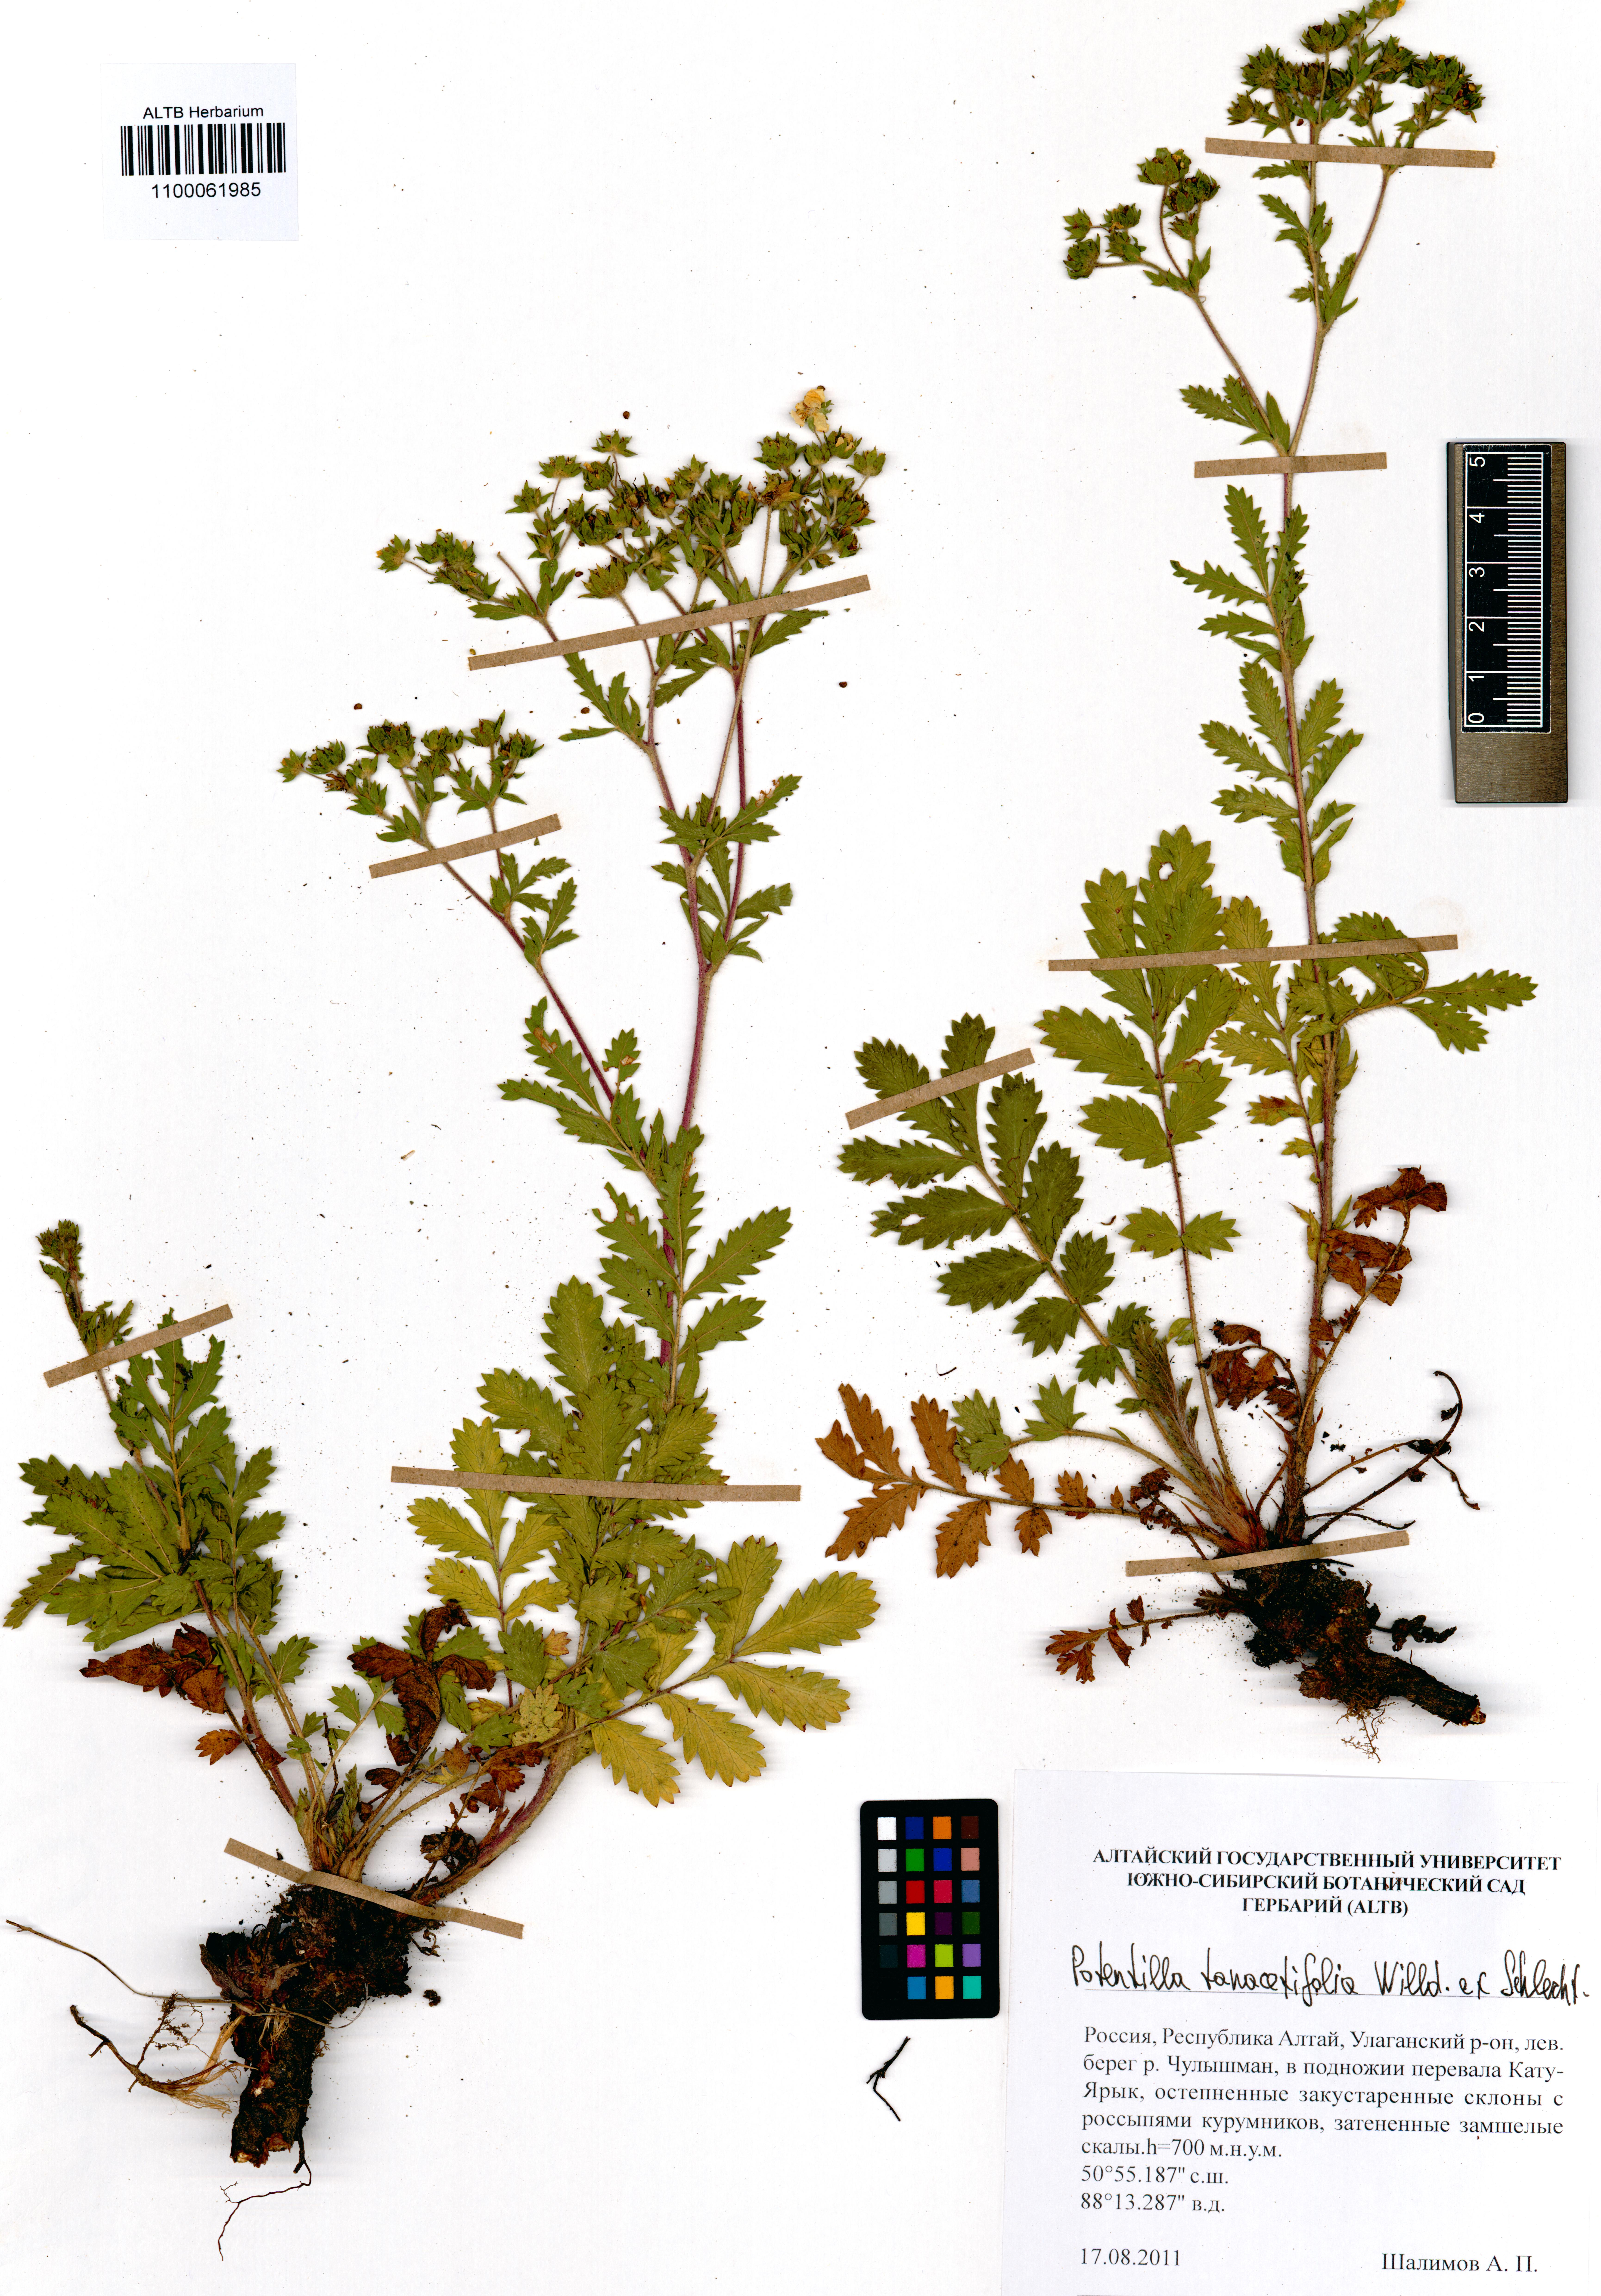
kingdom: Plantae
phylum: Tracheophyta
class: Magnoliopsida
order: Rosales
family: Rosaceae
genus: Potentilla
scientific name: Potentilla tanacetifolia
